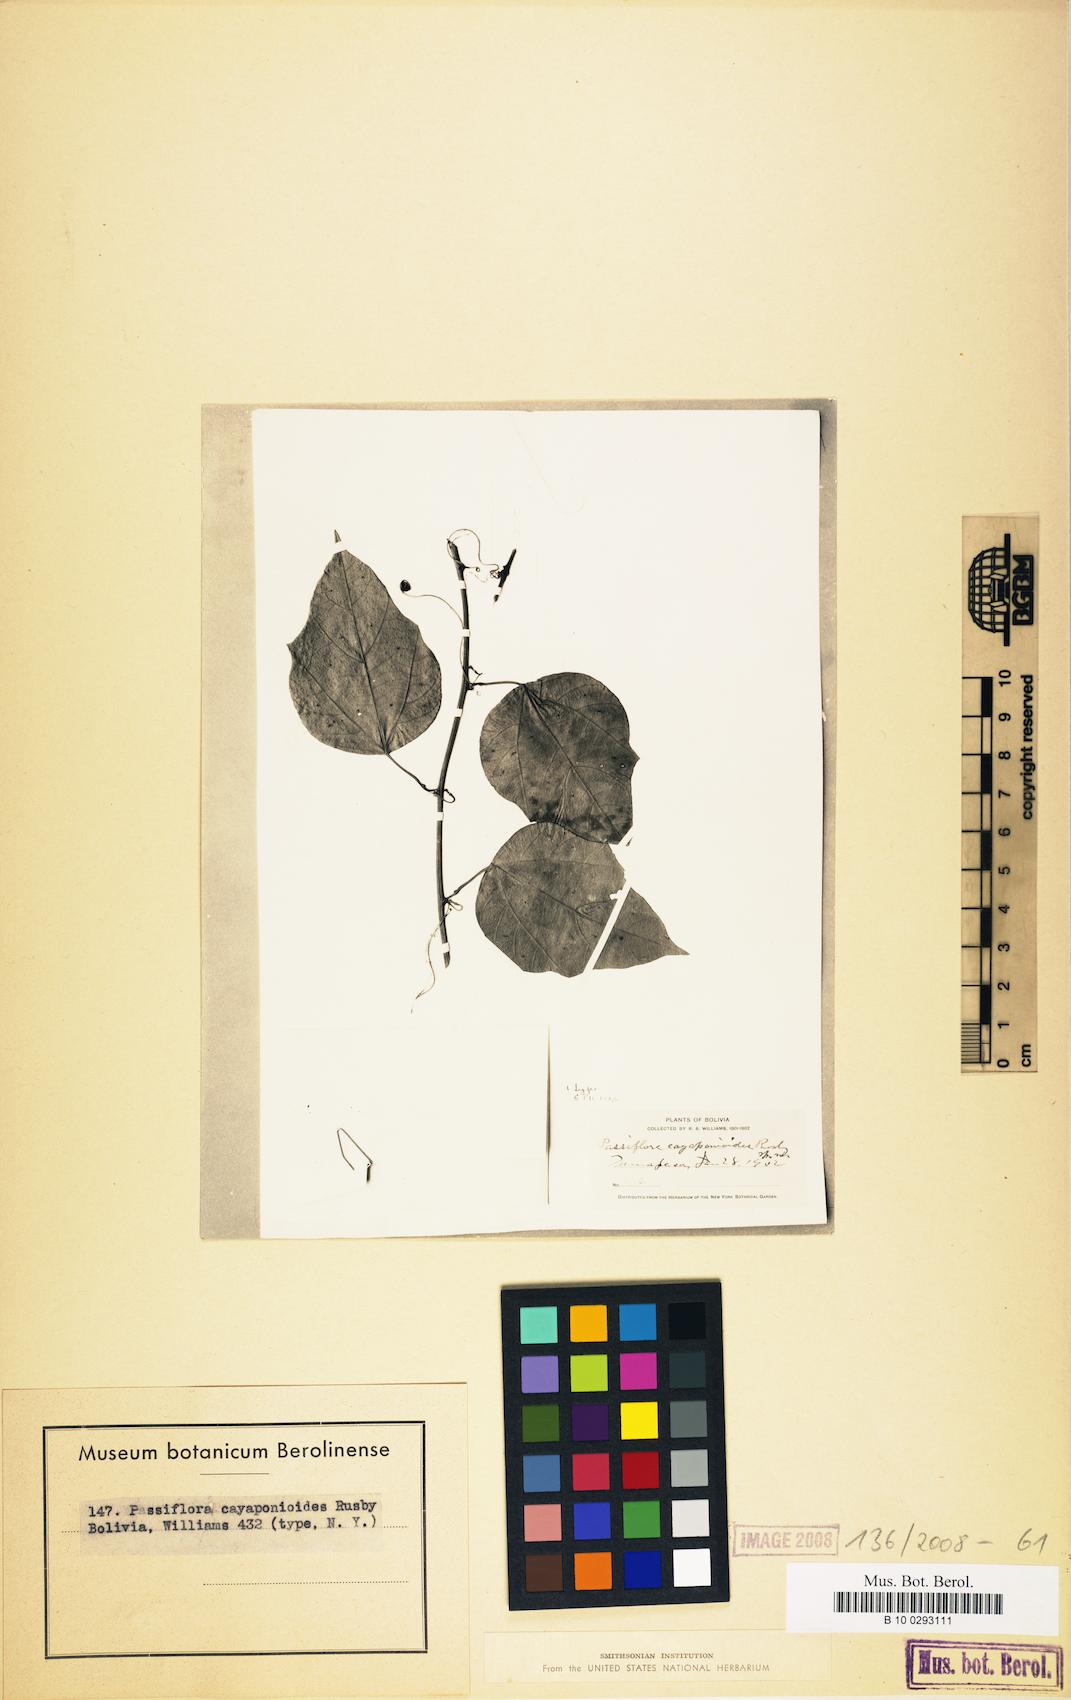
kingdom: Plantae
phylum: Tracheophyta
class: Magnoliopsida
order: Malpighiales
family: Passifloraceae
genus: Passiflora
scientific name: Passiflora auriculata
